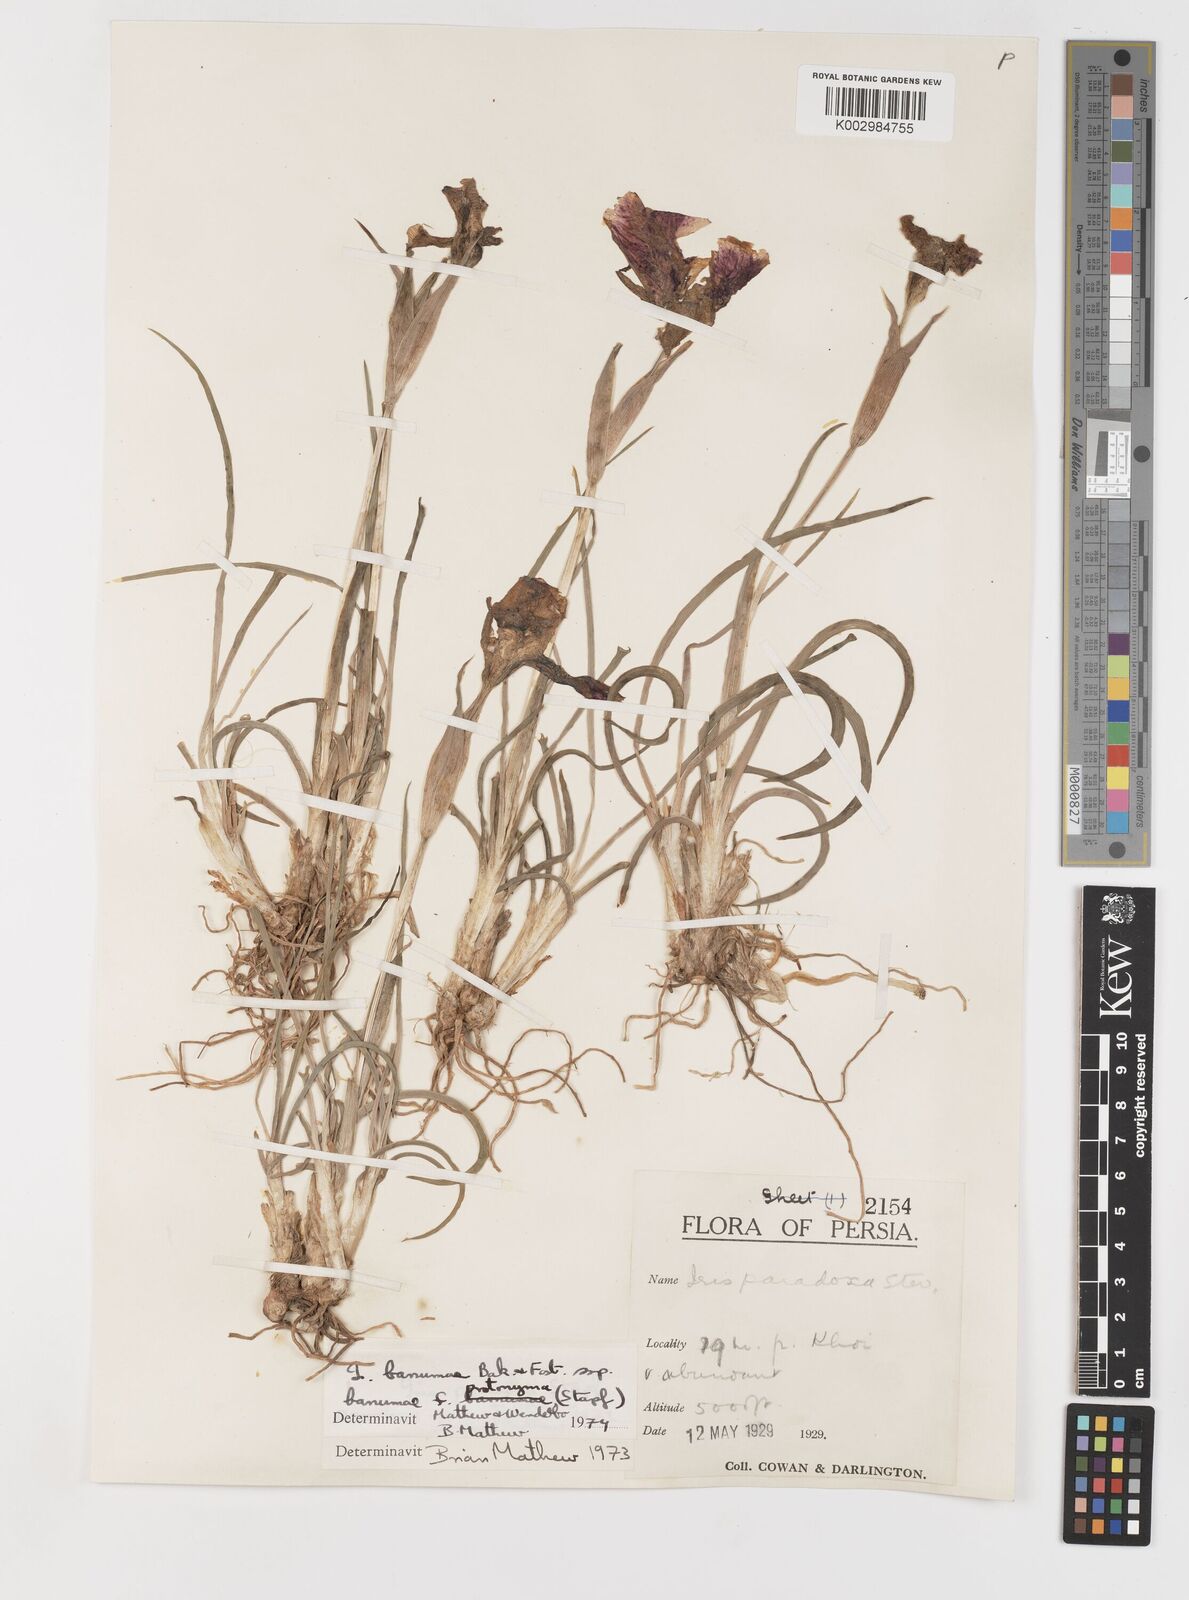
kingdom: Plantae
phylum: Tracheophyta
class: Liliopsida
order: Asparagales
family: Iridaceae
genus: Iris
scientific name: Iris polakii
